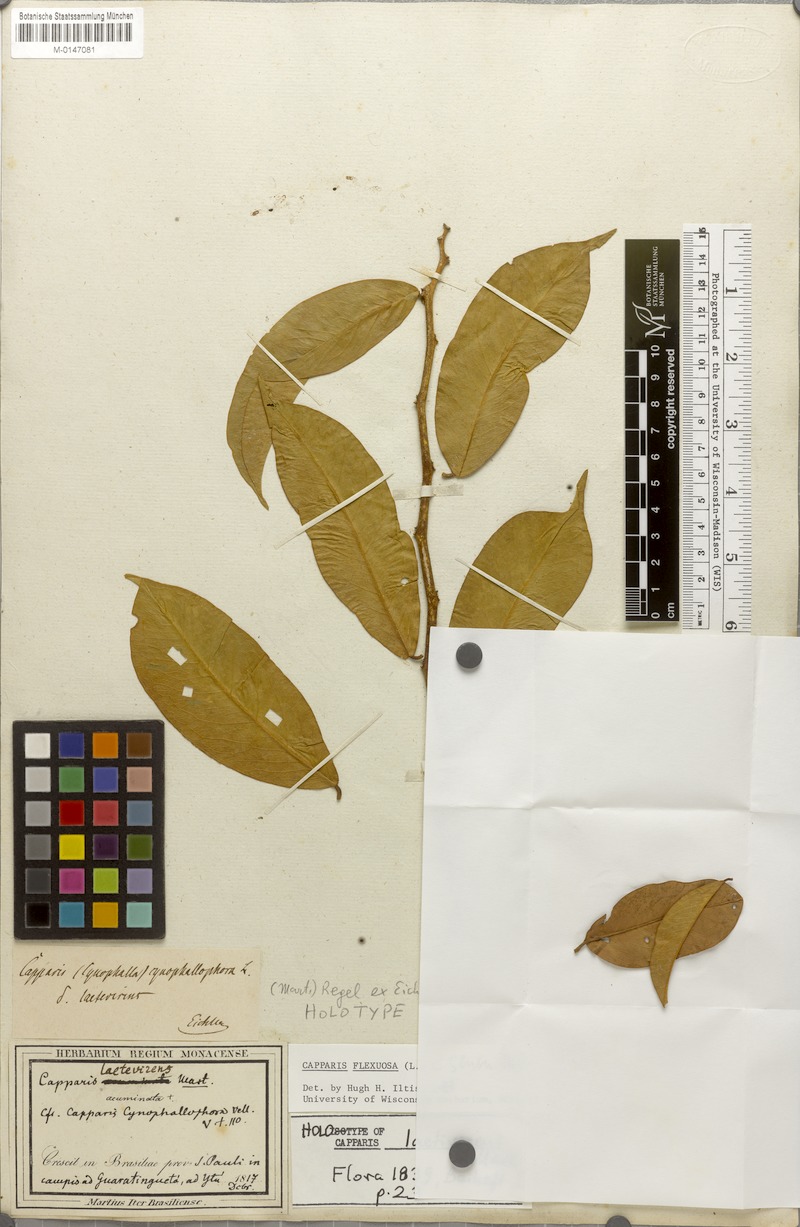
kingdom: Plantae
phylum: Tracheophyta
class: Magnoliopsida
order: Brassicales
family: Capparaceae
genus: Cynophalla
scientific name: Cynophalla flexuosa
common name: Capertree
